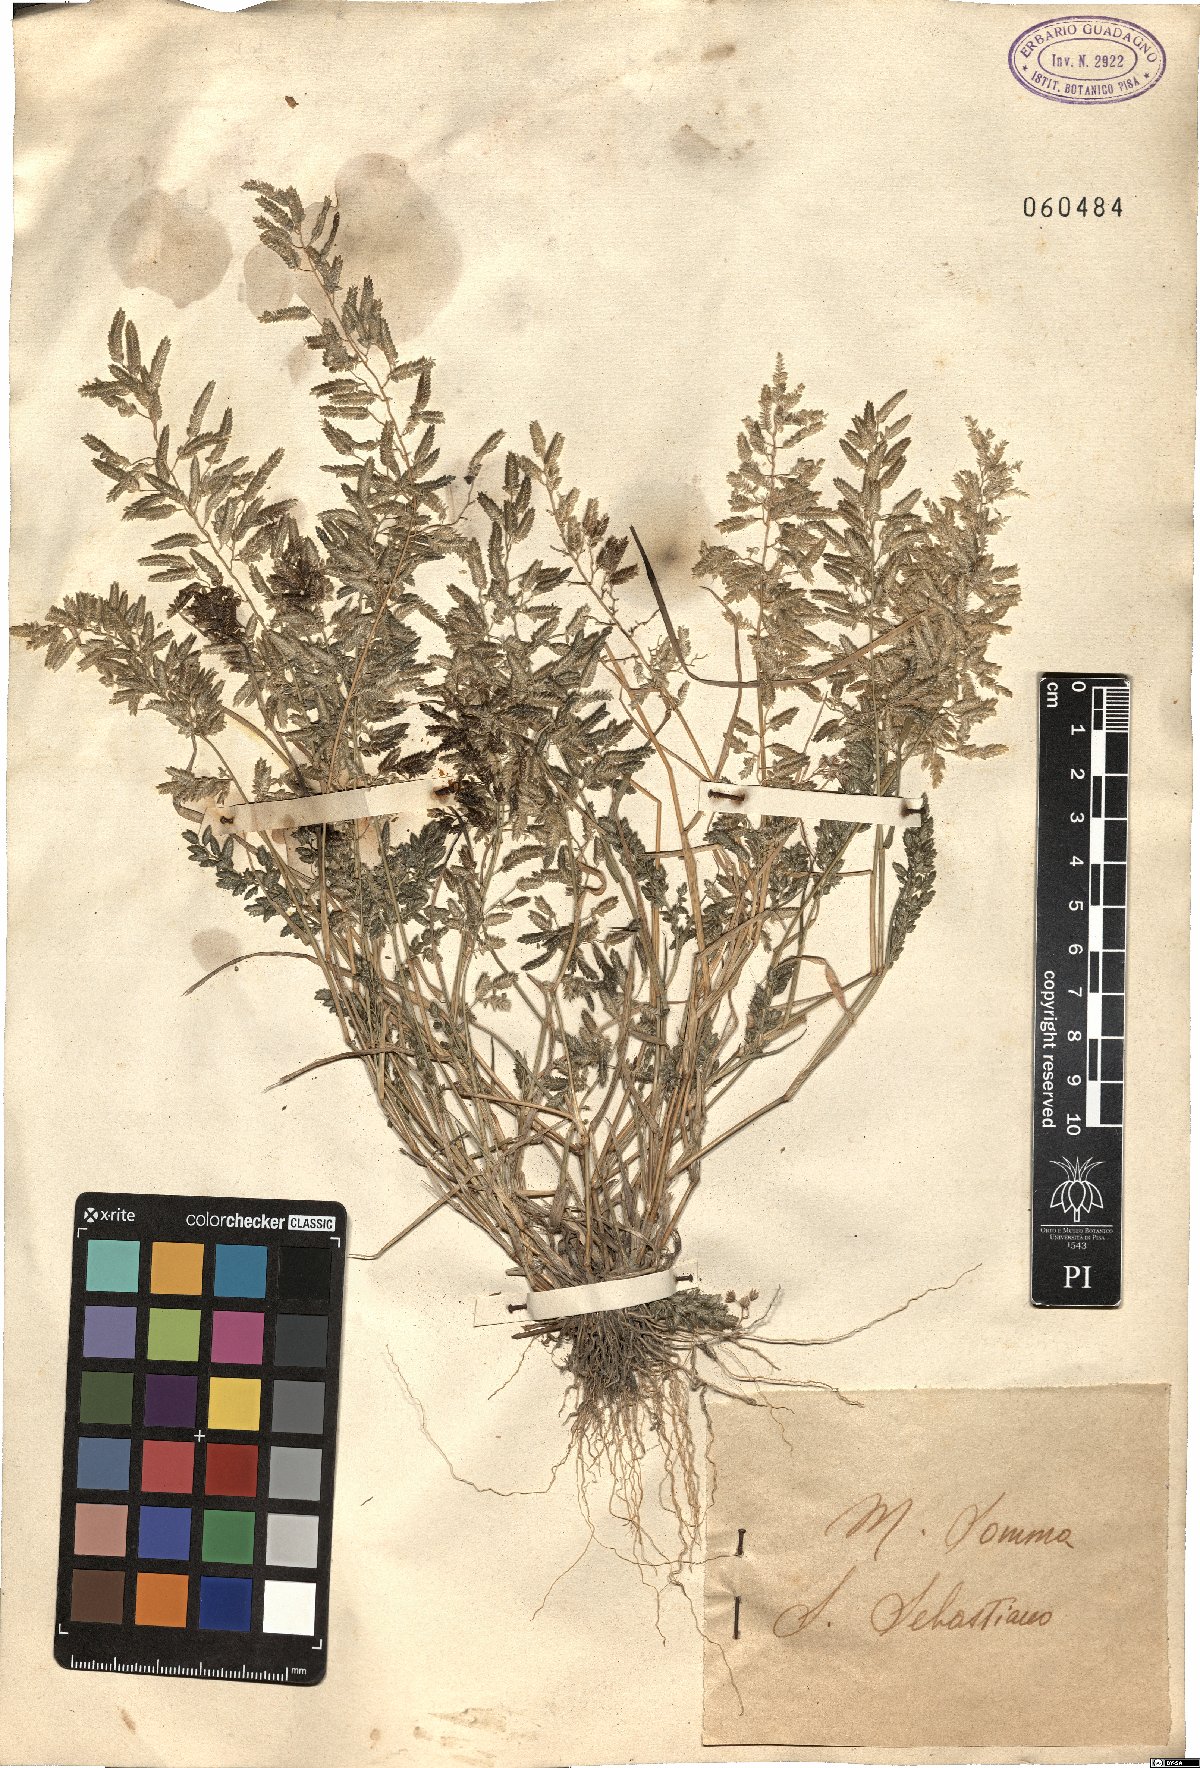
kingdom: Plantae
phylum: Tracheophyta
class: Liliopsida
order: Poales
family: Poaceae
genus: Eragrostis
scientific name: Eragrostis cilianensis
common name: Stinkgrass
